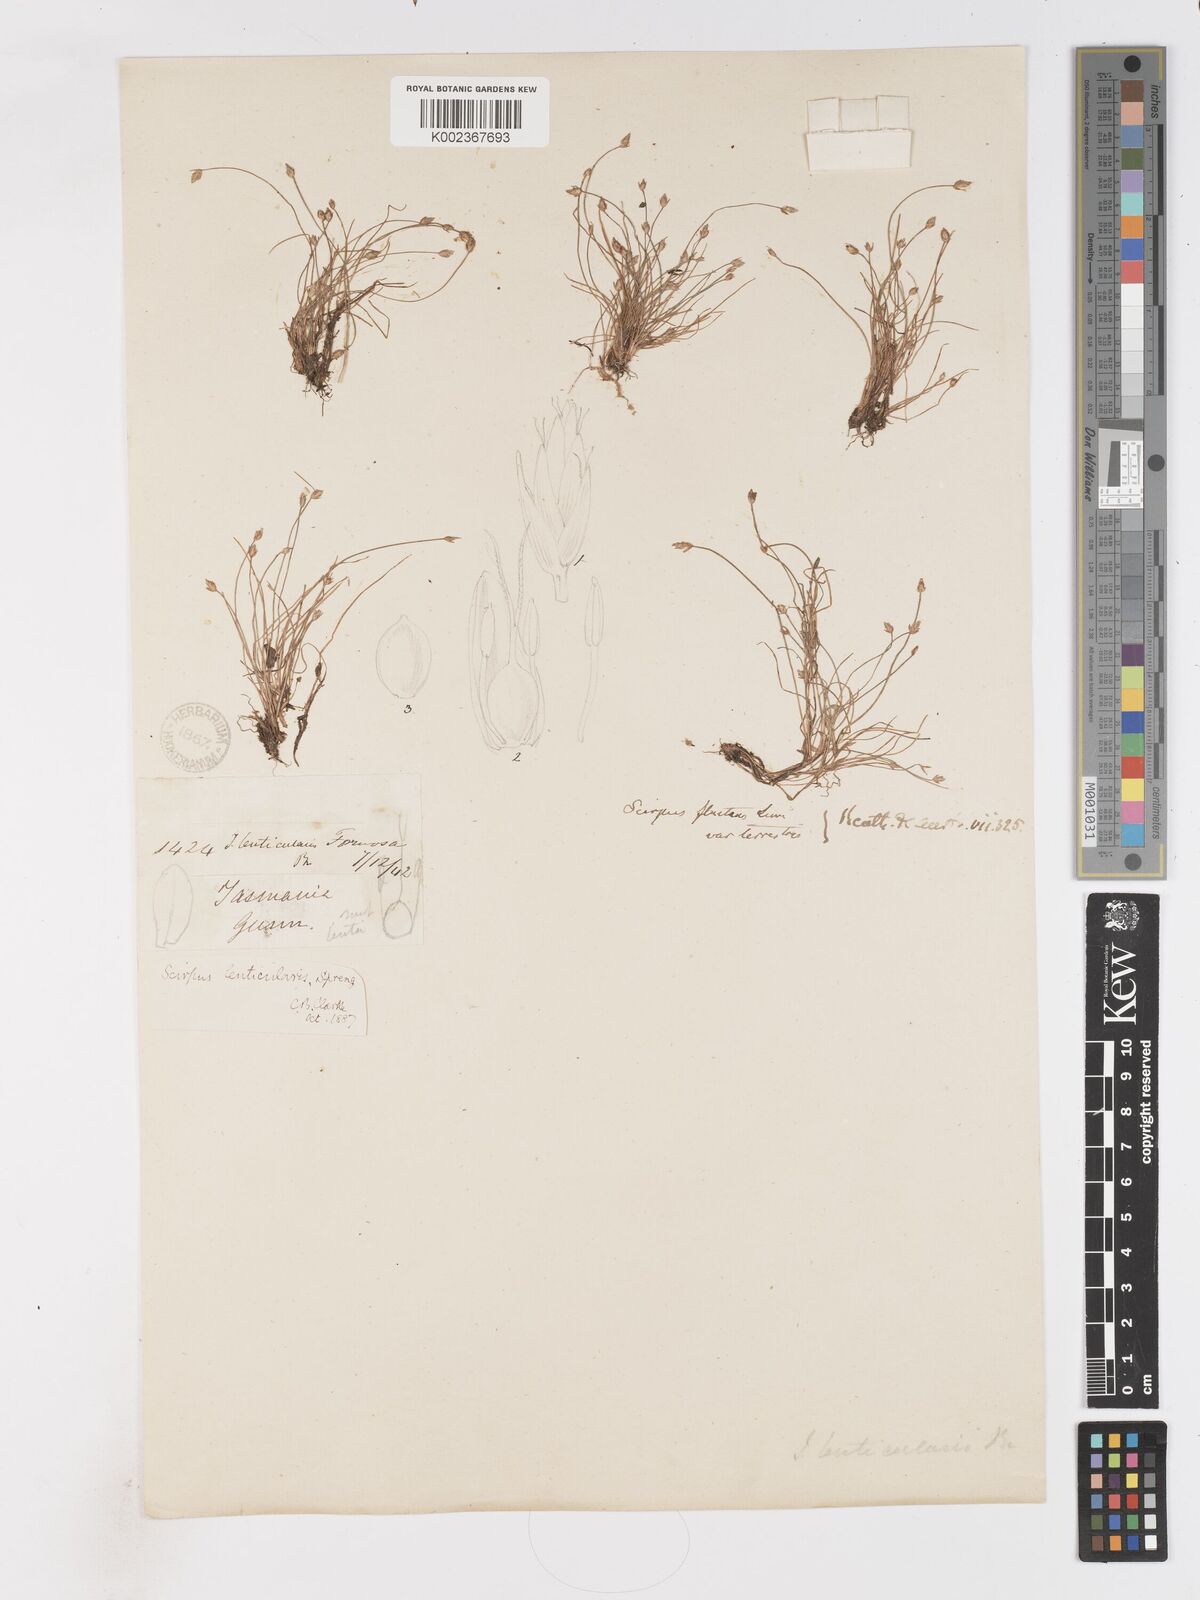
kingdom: Plantae
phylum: Tracheophyta
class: Liliopsida
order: Poales
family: Cyperaceae
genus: Isolepis
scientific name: Isolepis fluitans
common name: Floating club-rush
